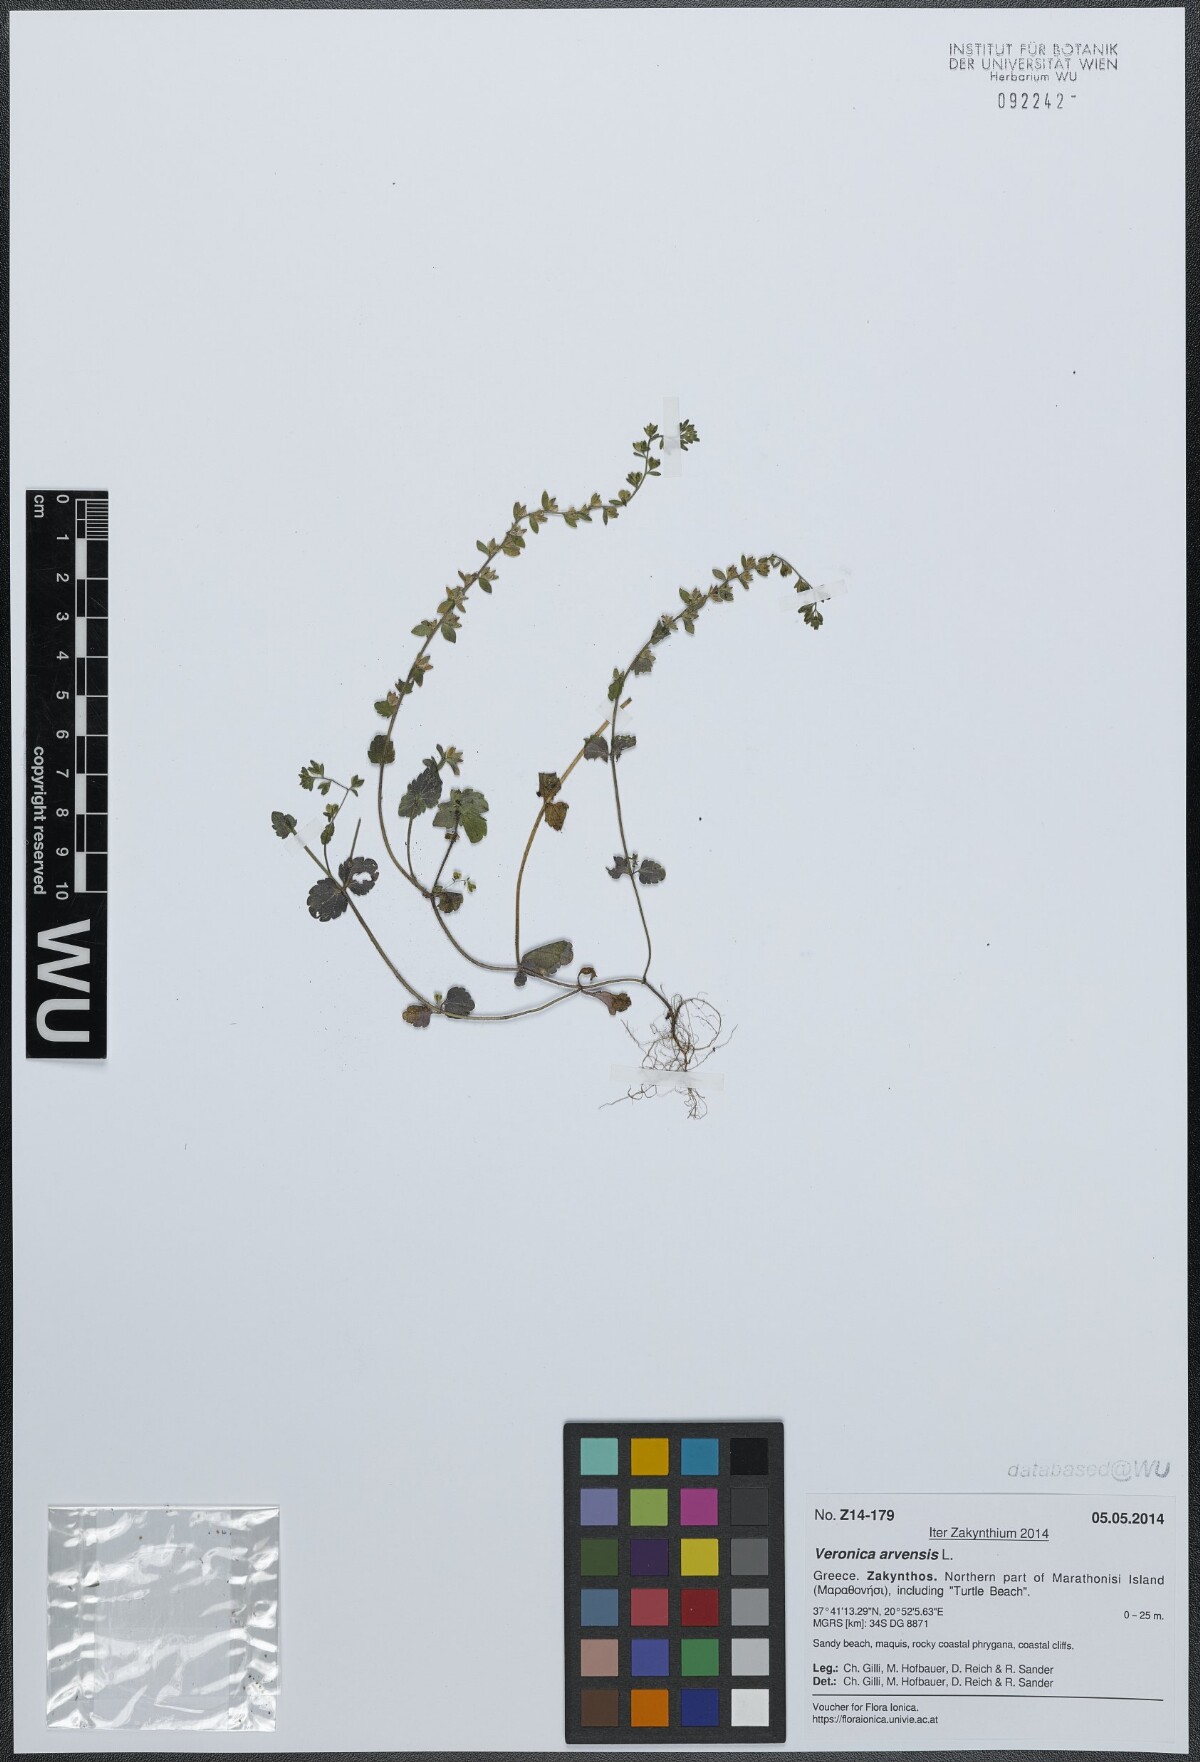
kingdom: Plantae
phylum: Tracheophyta
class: Magnoliopsida
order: Lamiales
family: Plantaginaceae
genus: Veronica
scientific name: Veronica arvensis
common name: Corn speedwell
